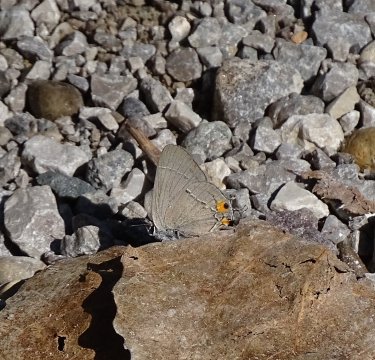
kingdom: Animalia
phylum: Arthropoda
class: Insecta
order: Lepidoptera
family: Lycaenidae
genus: Strymon
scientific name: Strymon melinus
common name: Gray Hairstreak
